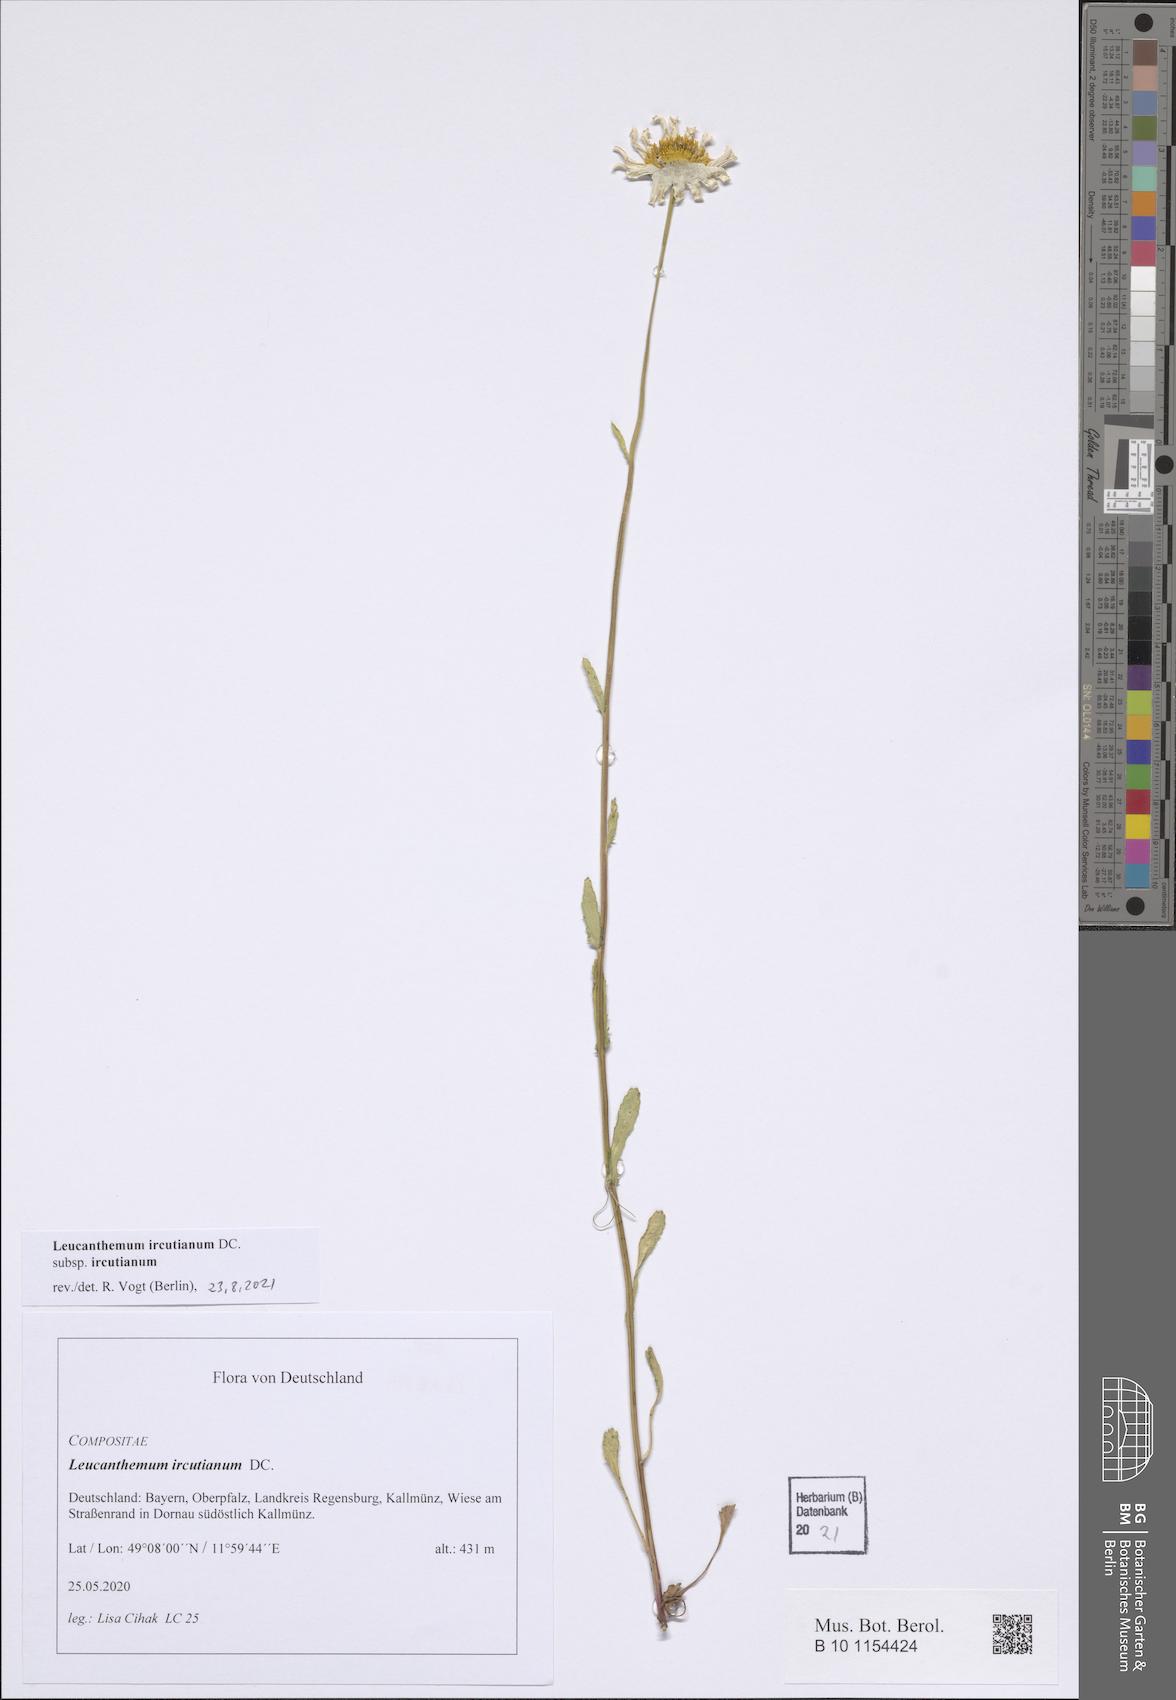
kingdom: Plantae
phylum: Tracheophyta
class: Magnoliopsida
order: Asterales
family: Asteraceae
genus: Leucanthemum
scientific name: Leucanthemum ircutianum
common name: Daisy
